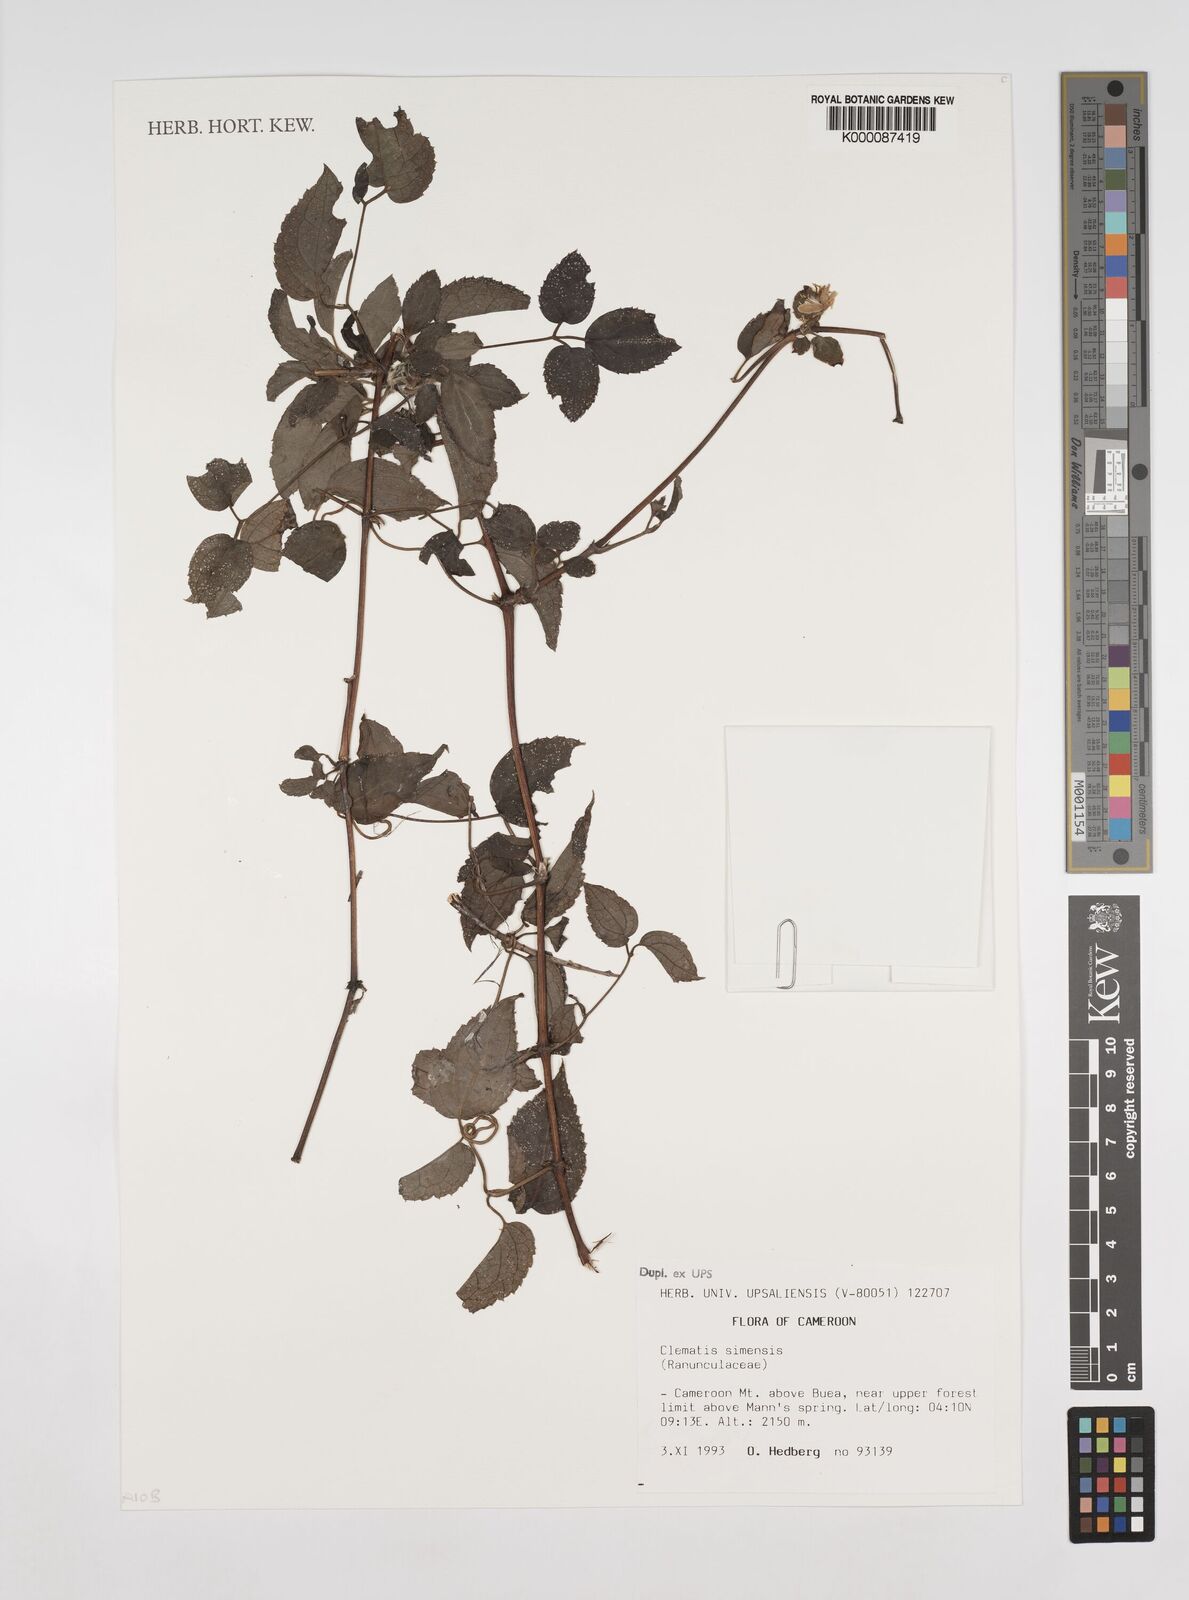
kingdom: Plantae
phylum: Tracheophyta
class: Magnoliopsida
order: Ranunculales
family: Ranunculaceae
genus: Clematis
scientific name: Clematis simensis
